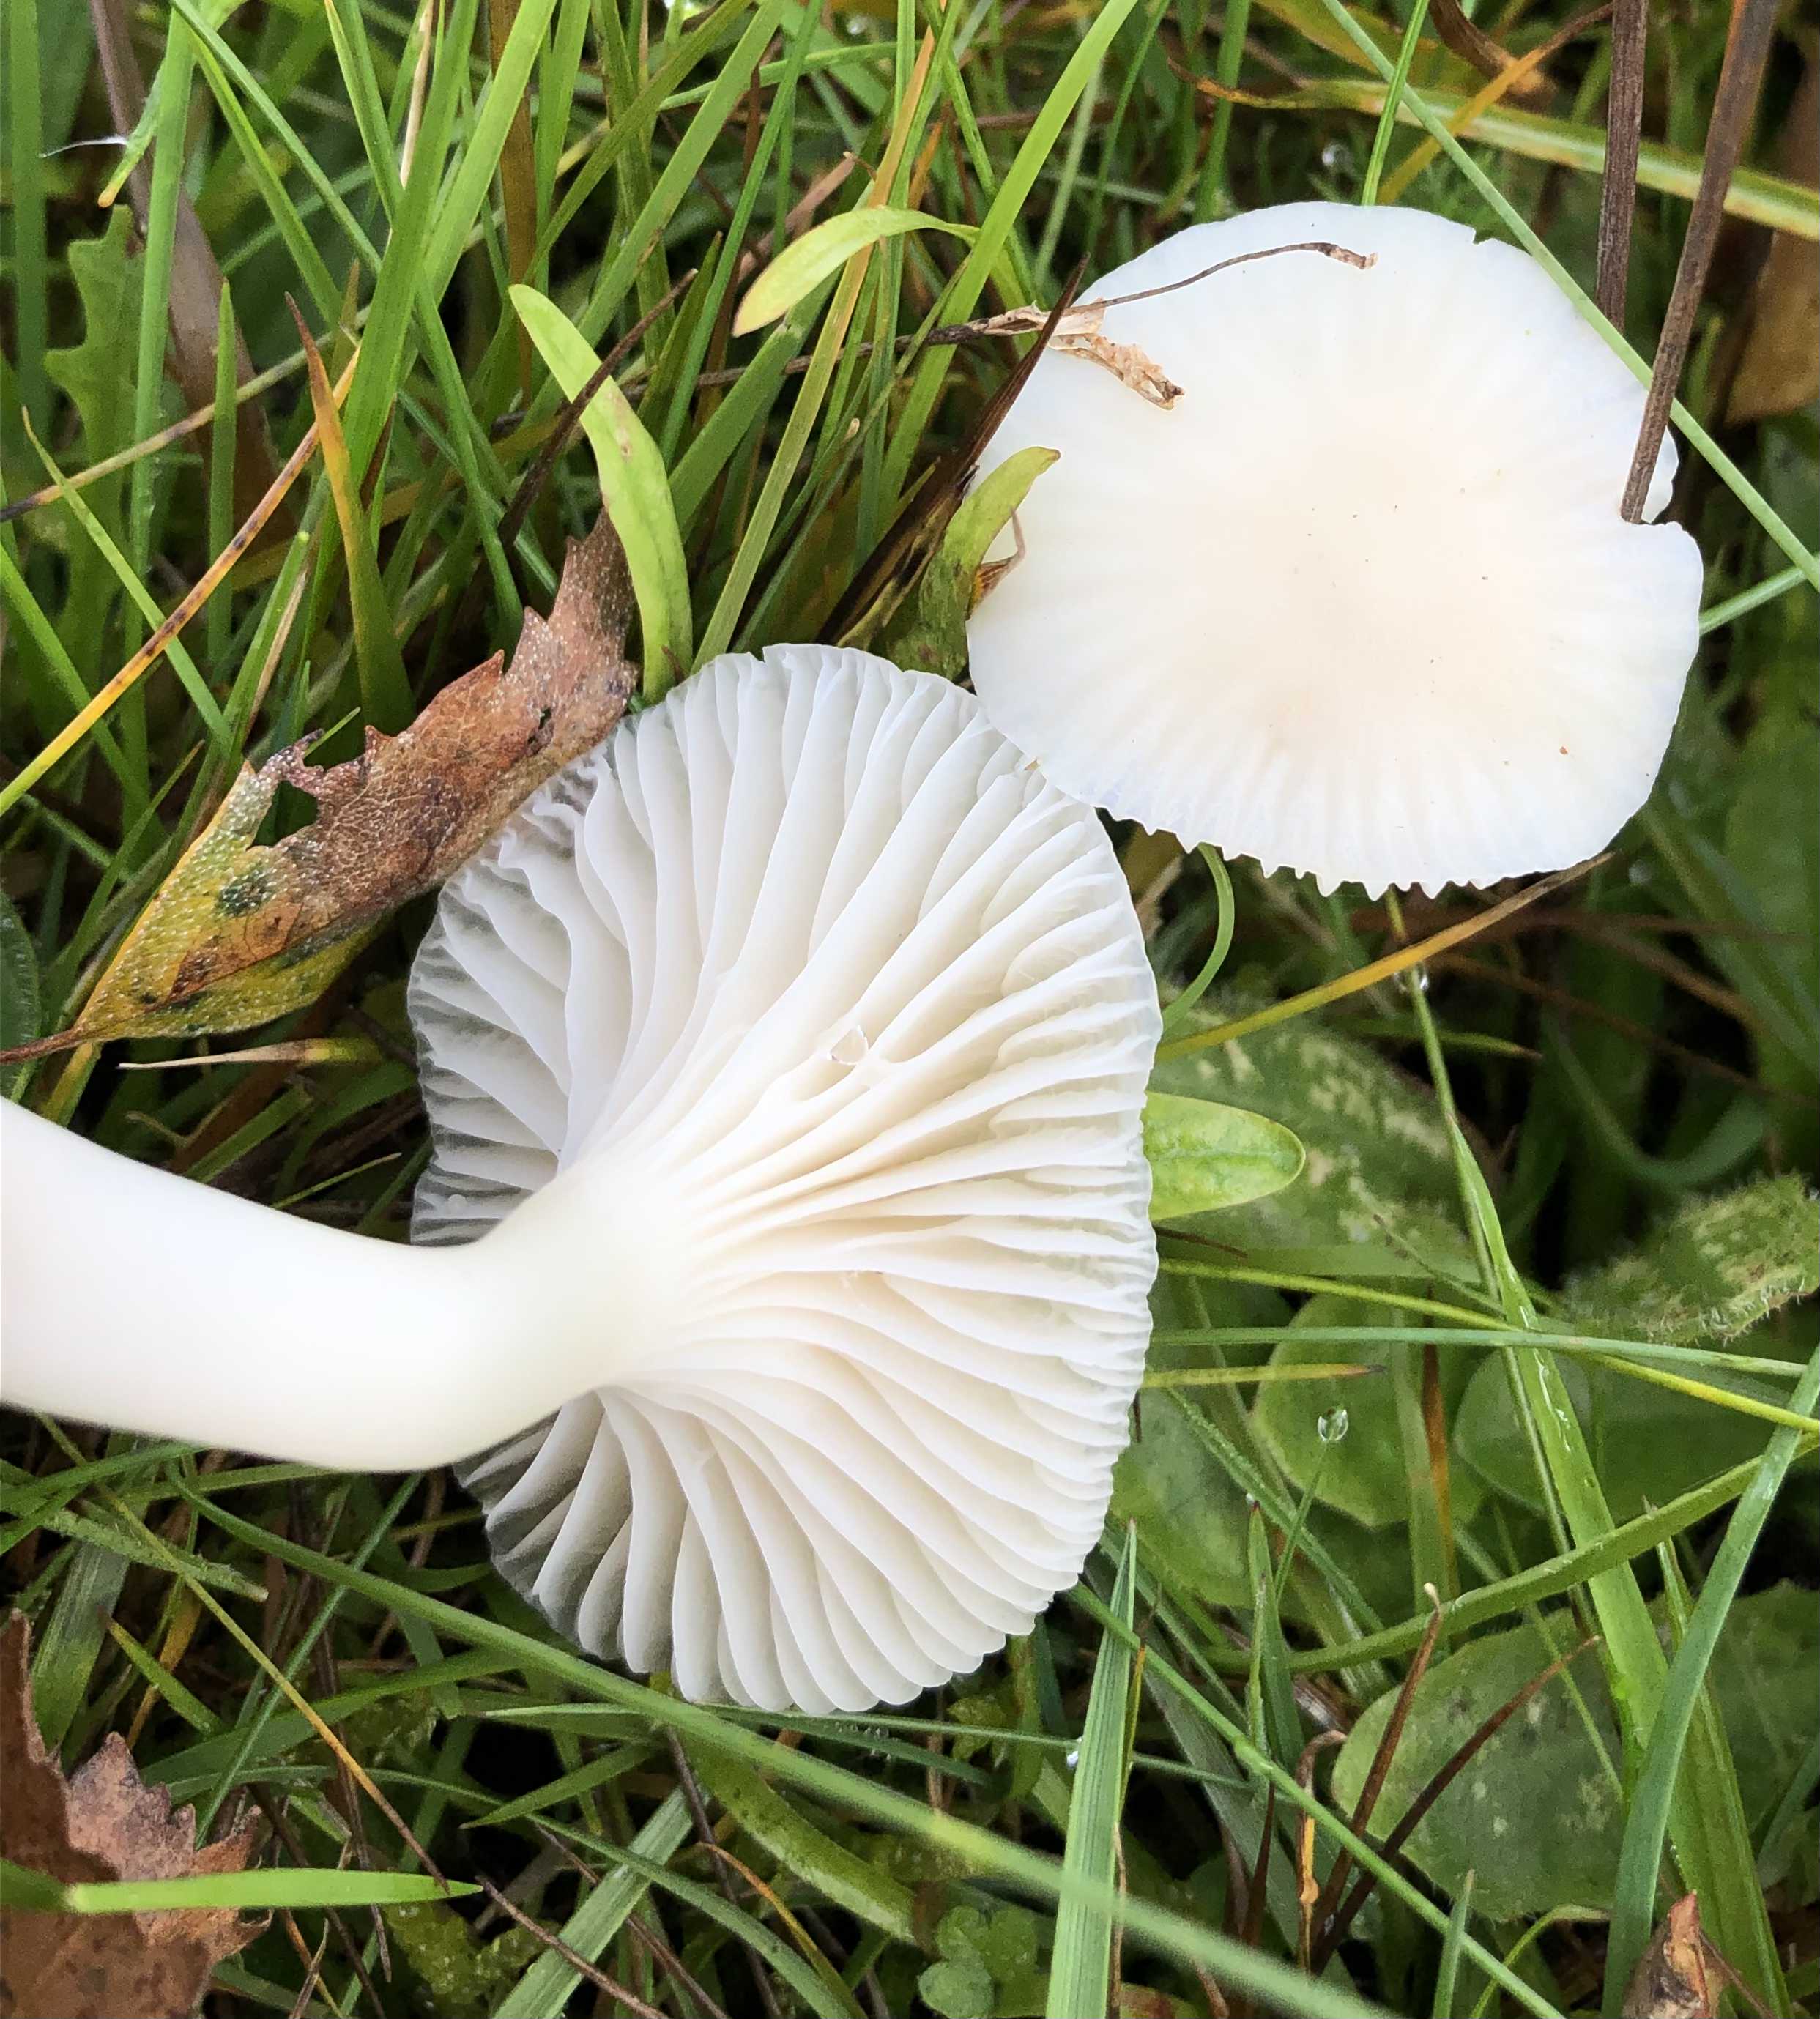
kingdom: Fungi
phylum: Basidiomycota
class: Agaricomycetes
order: Agaricales
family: Hygrophoraceae
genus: Cuphophyllus
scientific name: Cuphophyllus virgineus
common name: snehvid vokshat
